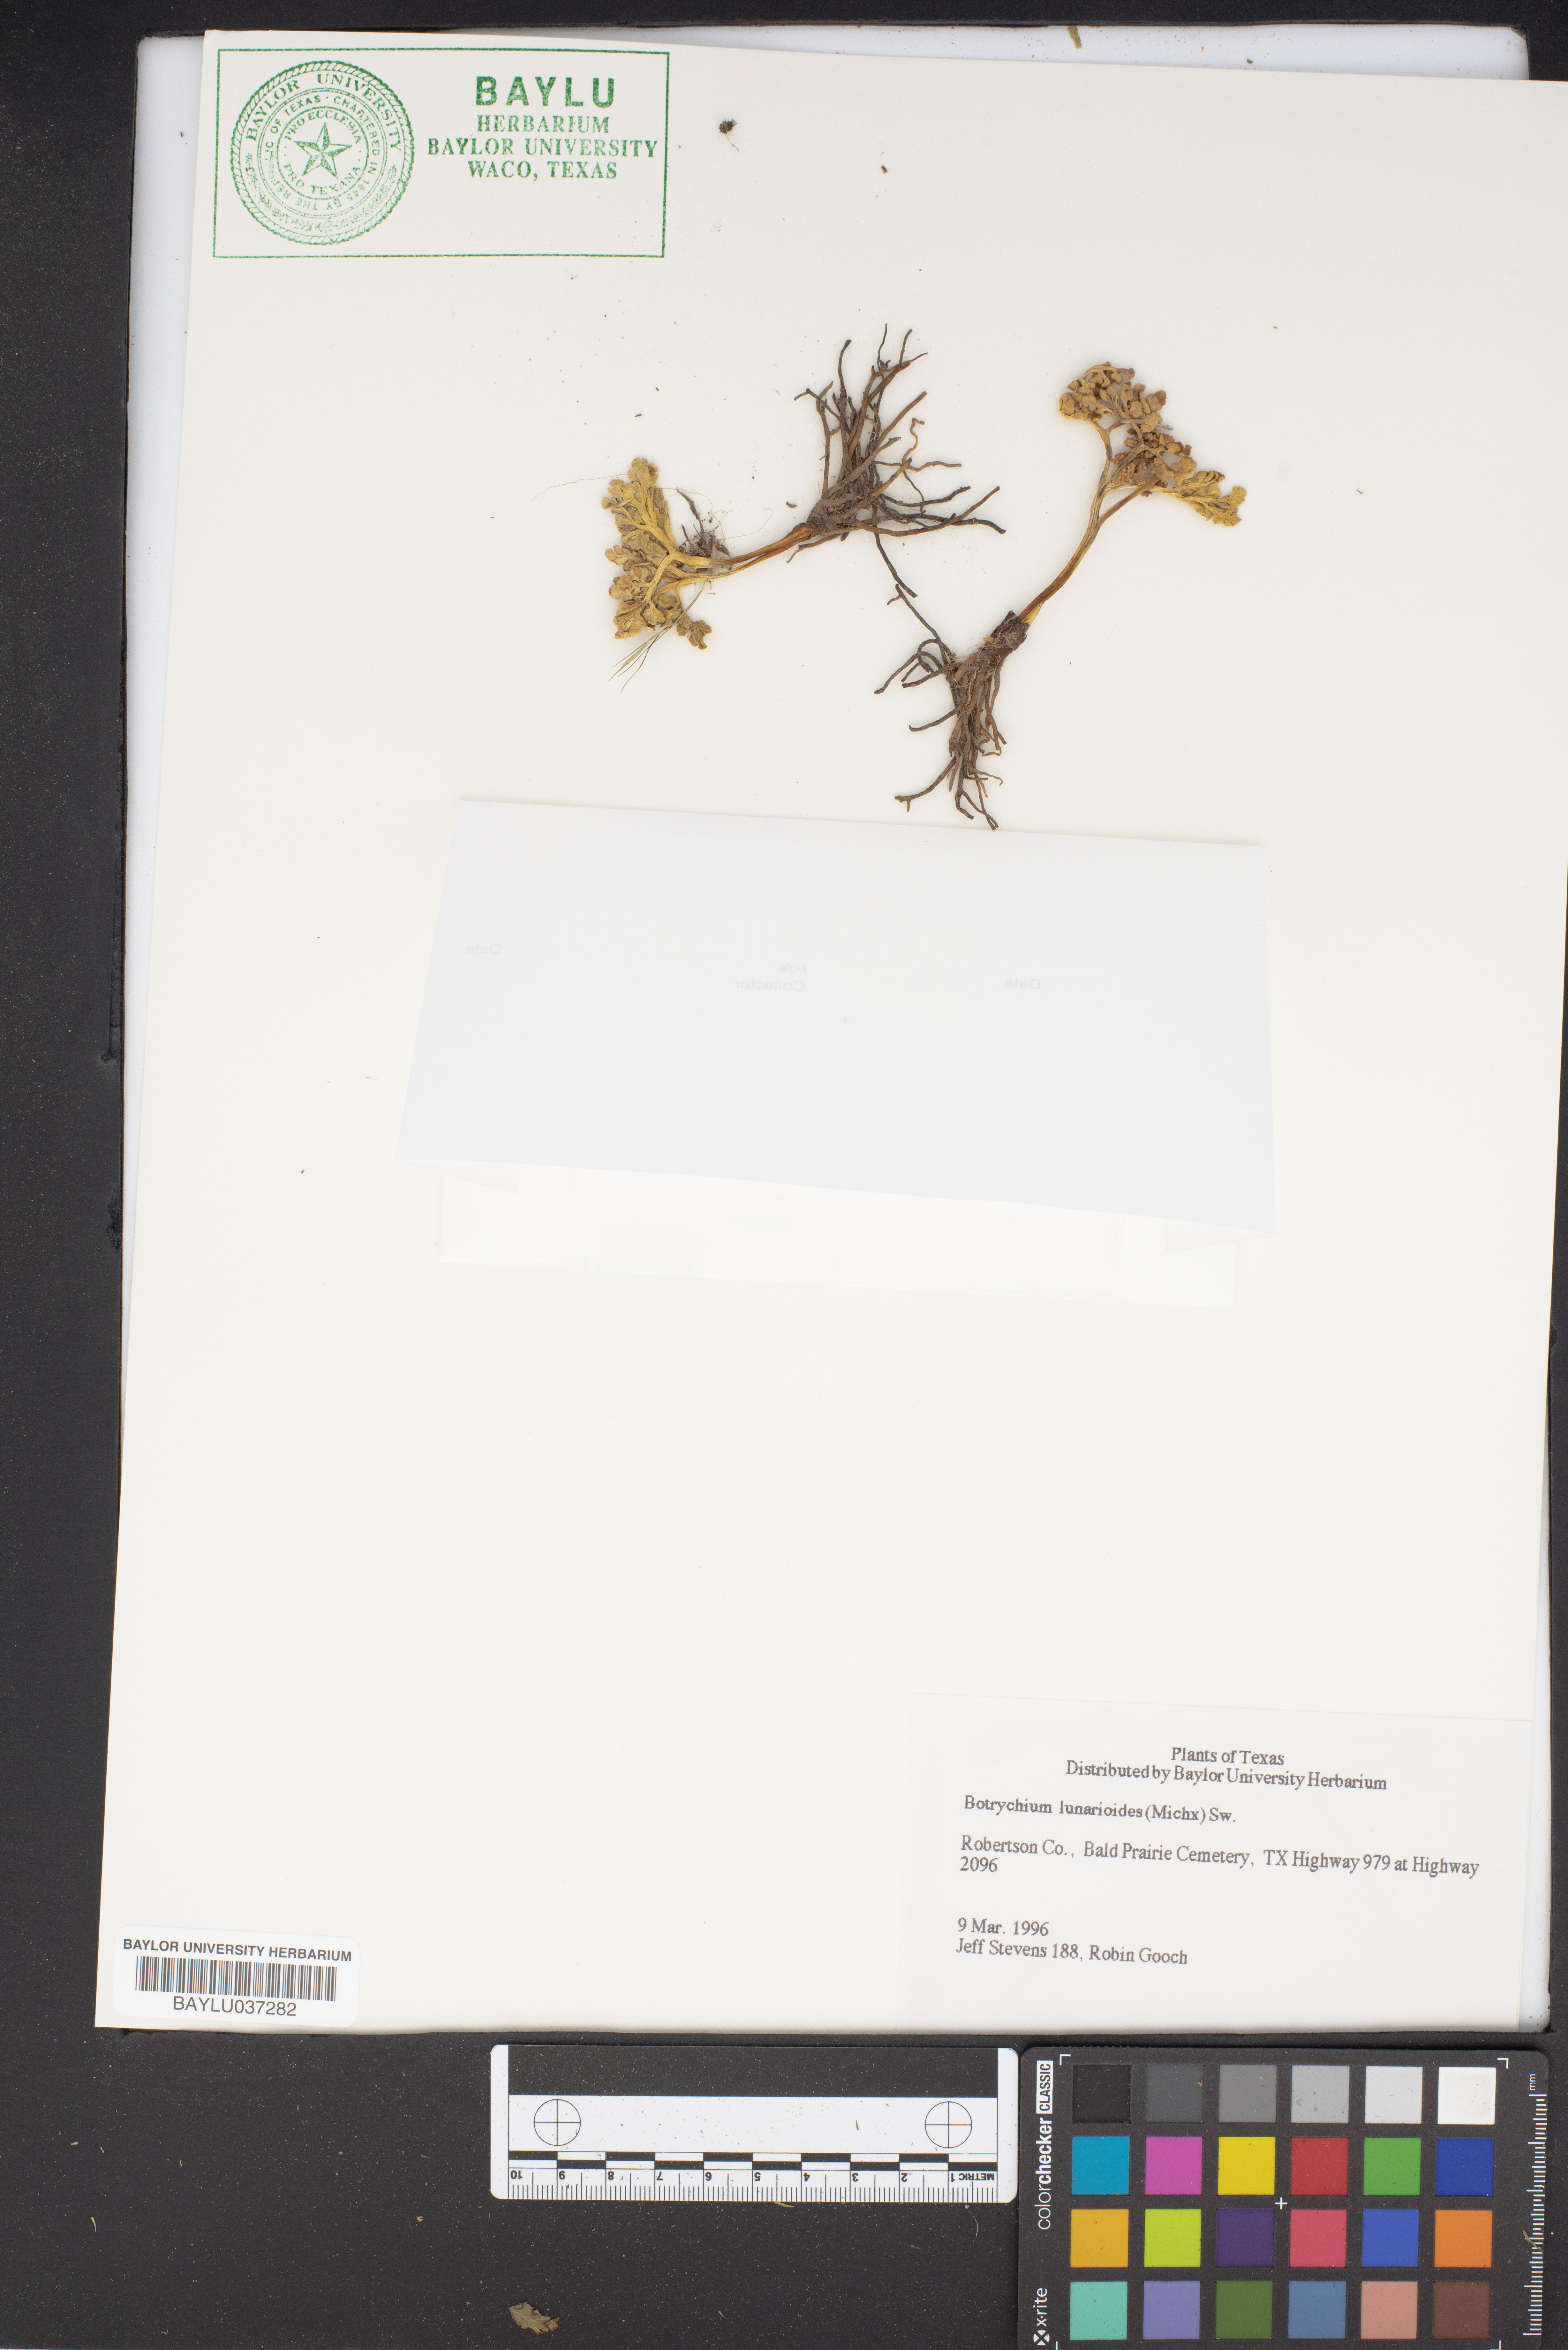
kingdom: Plantae
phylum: Tracheophyta
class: Polypodiopsida
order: Ophioglossales
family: Ophioglossaceae
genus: Sceptridium
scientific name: Sceptridium lunarioides
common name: Prostrate grapefern
